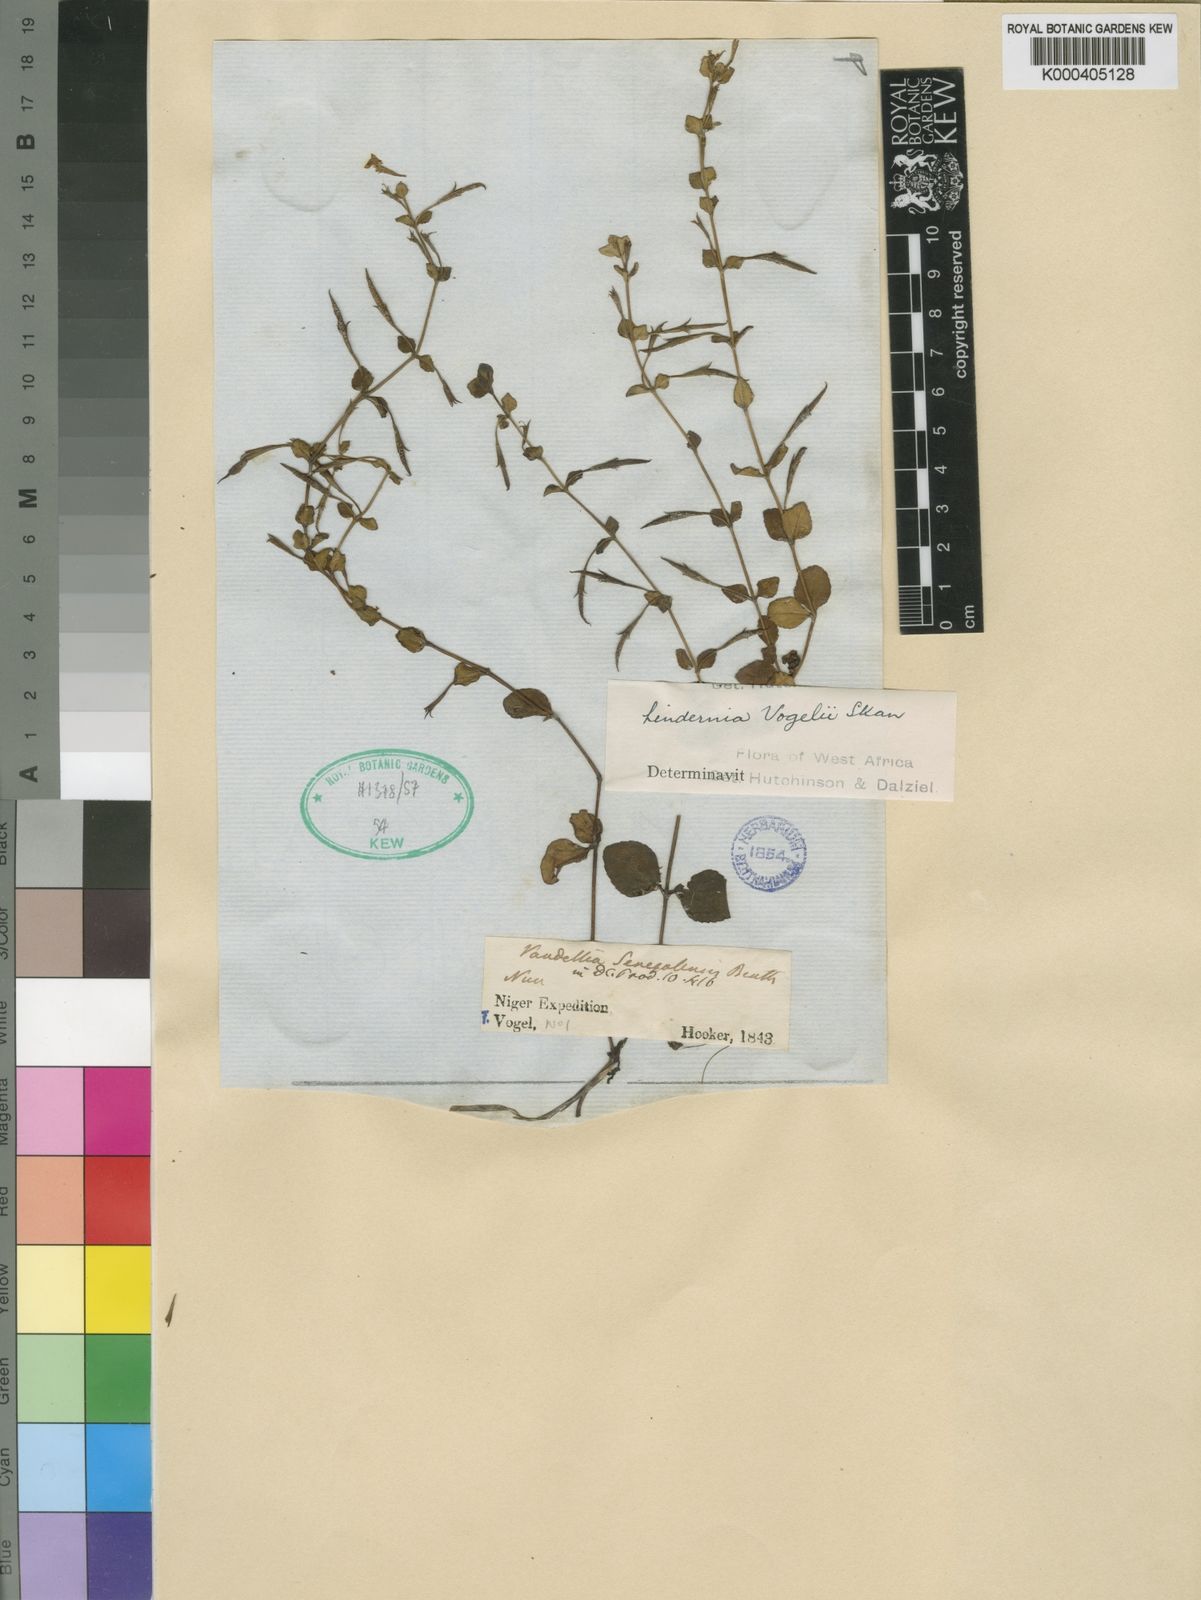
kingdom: Plantae
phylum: Tracheophyta
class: Magnoliopsida
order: Lamiales
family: Linderniaceae
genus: Vandellia
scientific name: Vandellia vogelii
